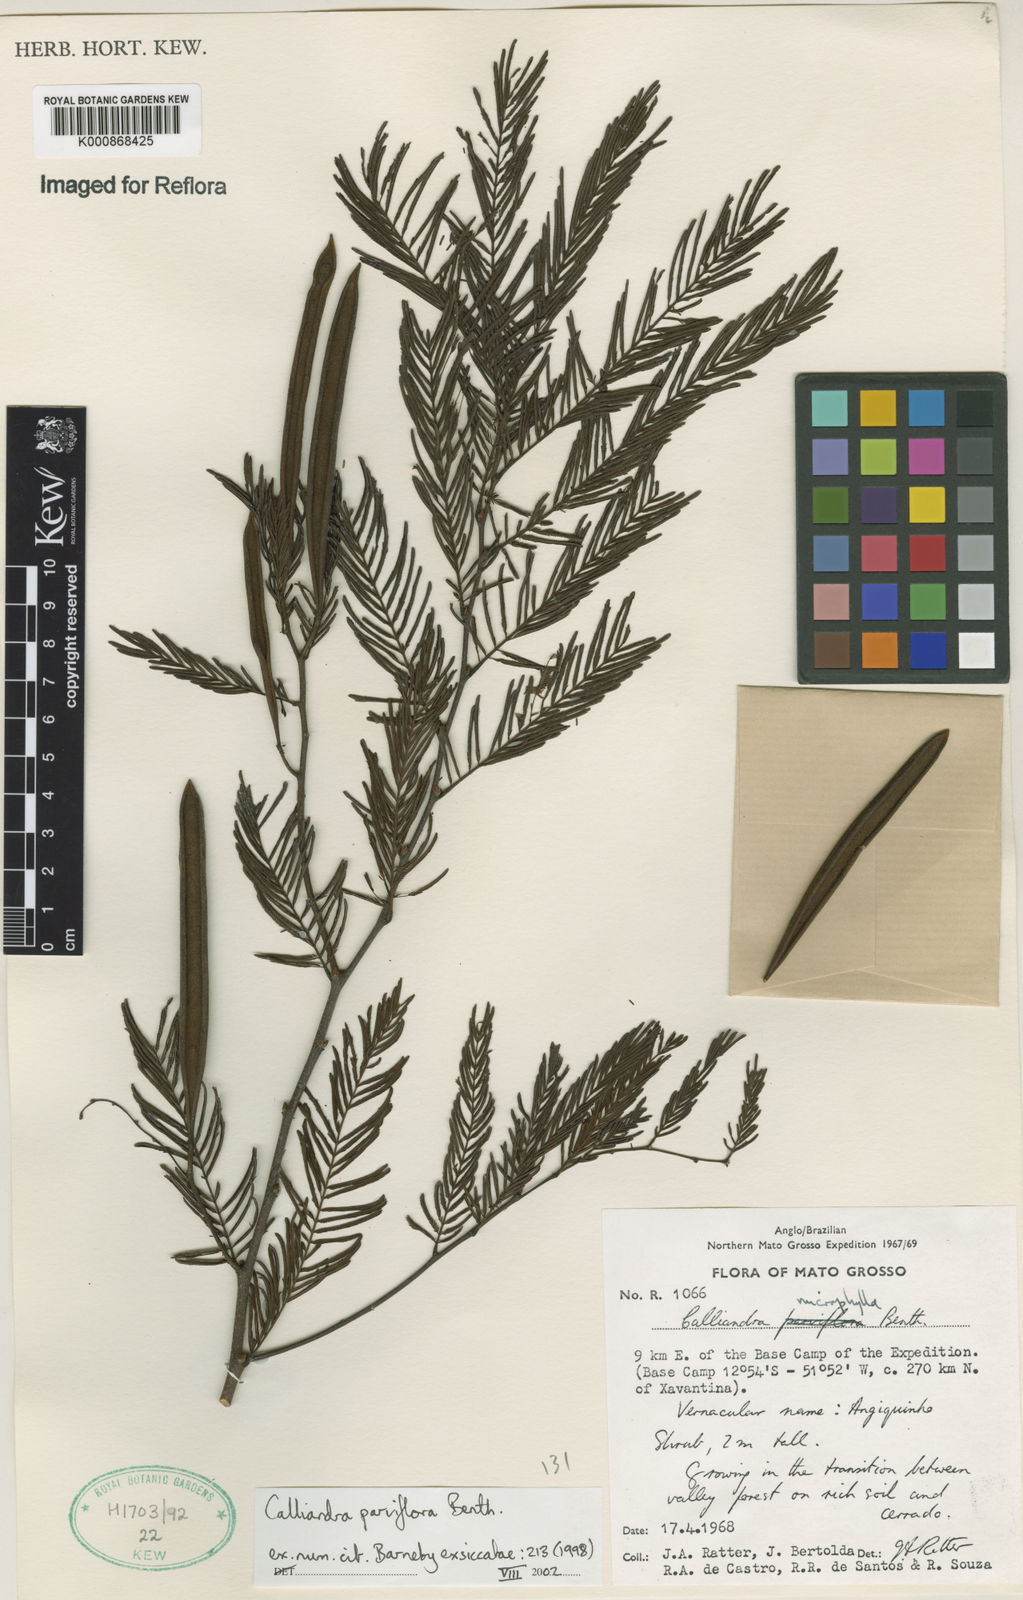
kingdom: Plantae
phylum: Tracheophyta
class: Magnoliopsida
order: Fabales
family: Fabaceae
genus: Calliandra
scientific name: Calliandra parviflora
